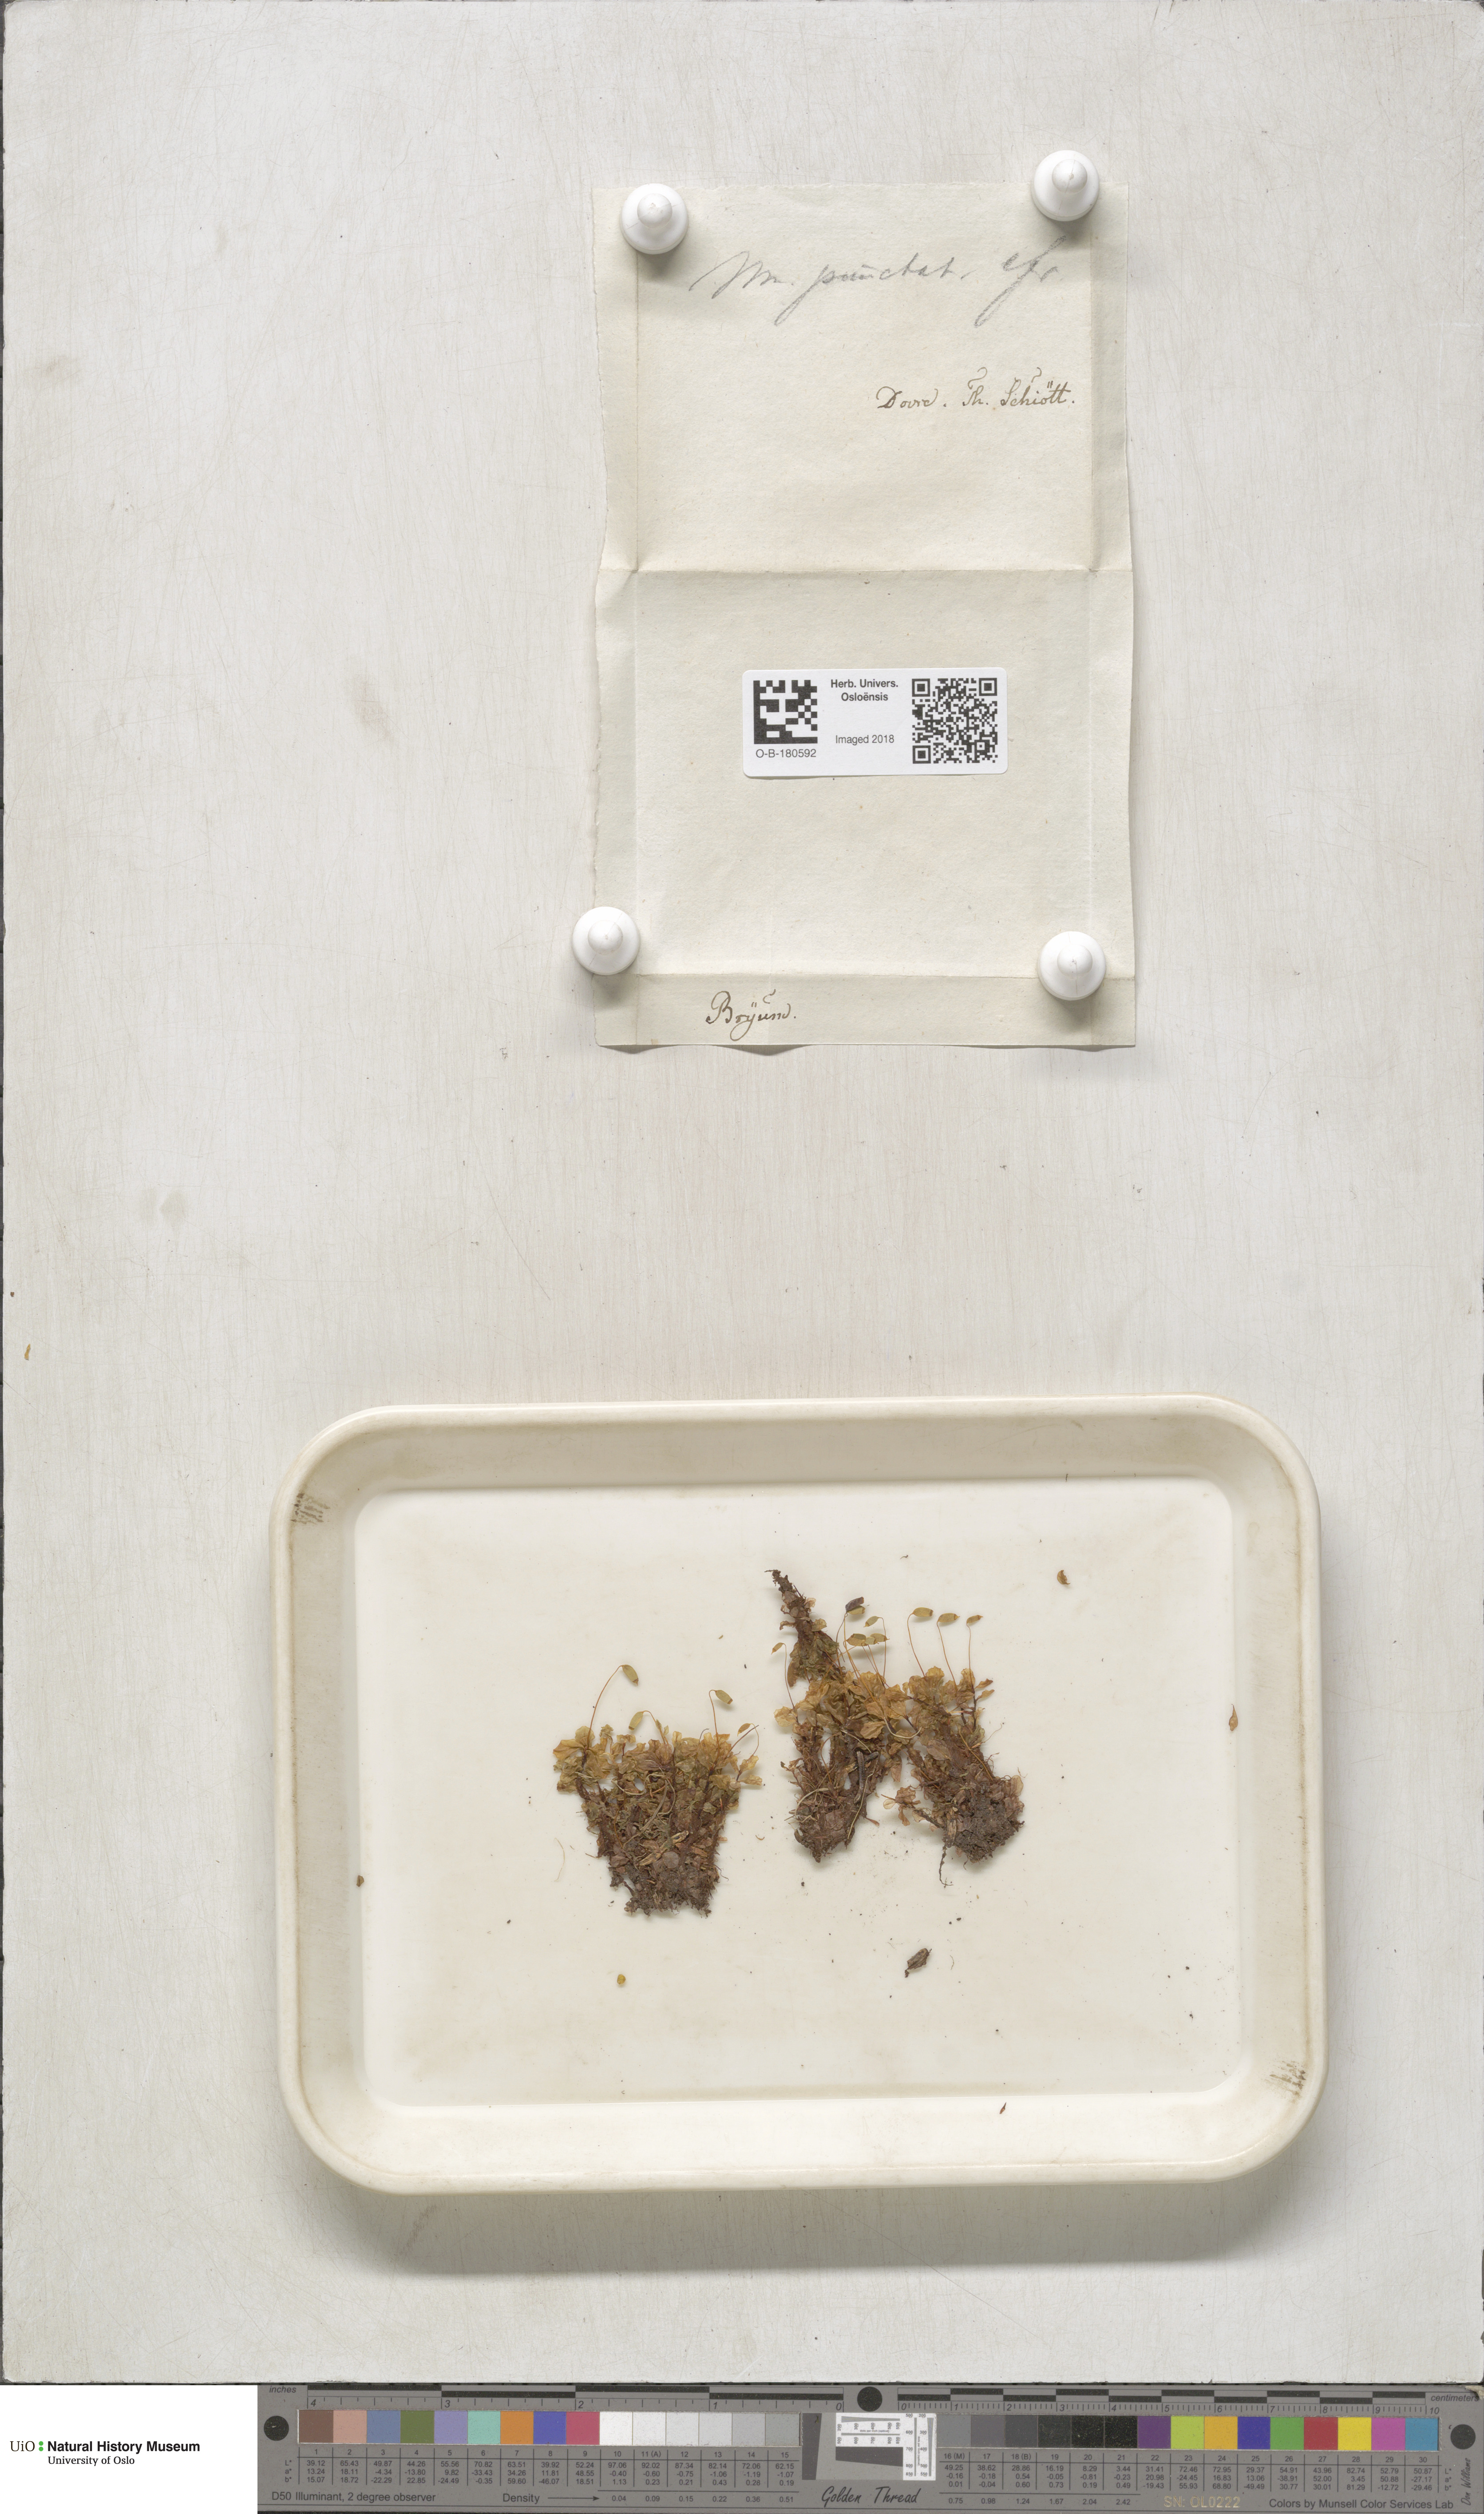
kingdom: Plantae
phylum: Bryophyta
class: Bryopsida
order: Bryales
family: Mniaceae
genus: Rhizomnium
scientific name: Rhizomnium punctatum
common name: Dotted leafy moss
